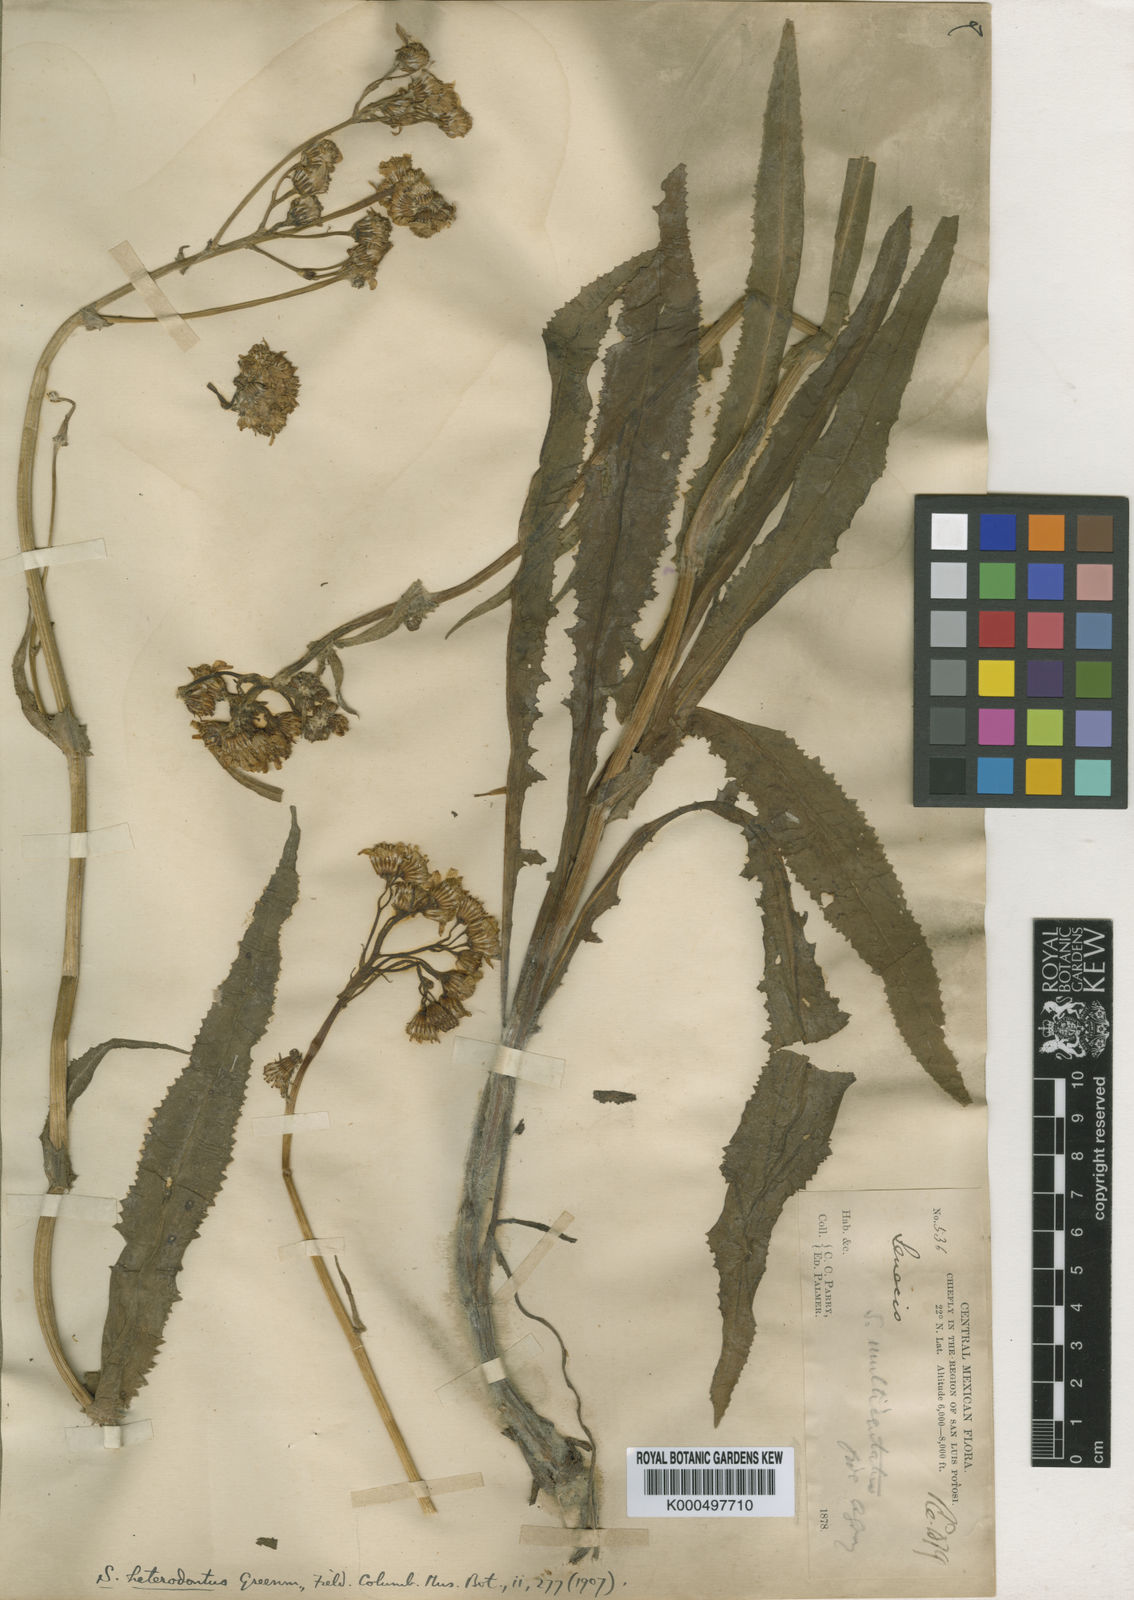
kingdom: Plantae
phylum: Tracheophyta
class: Magnoliopsida
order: Asterales
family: Asteraceae
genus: Senecio
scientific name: Senecio heterodontus
